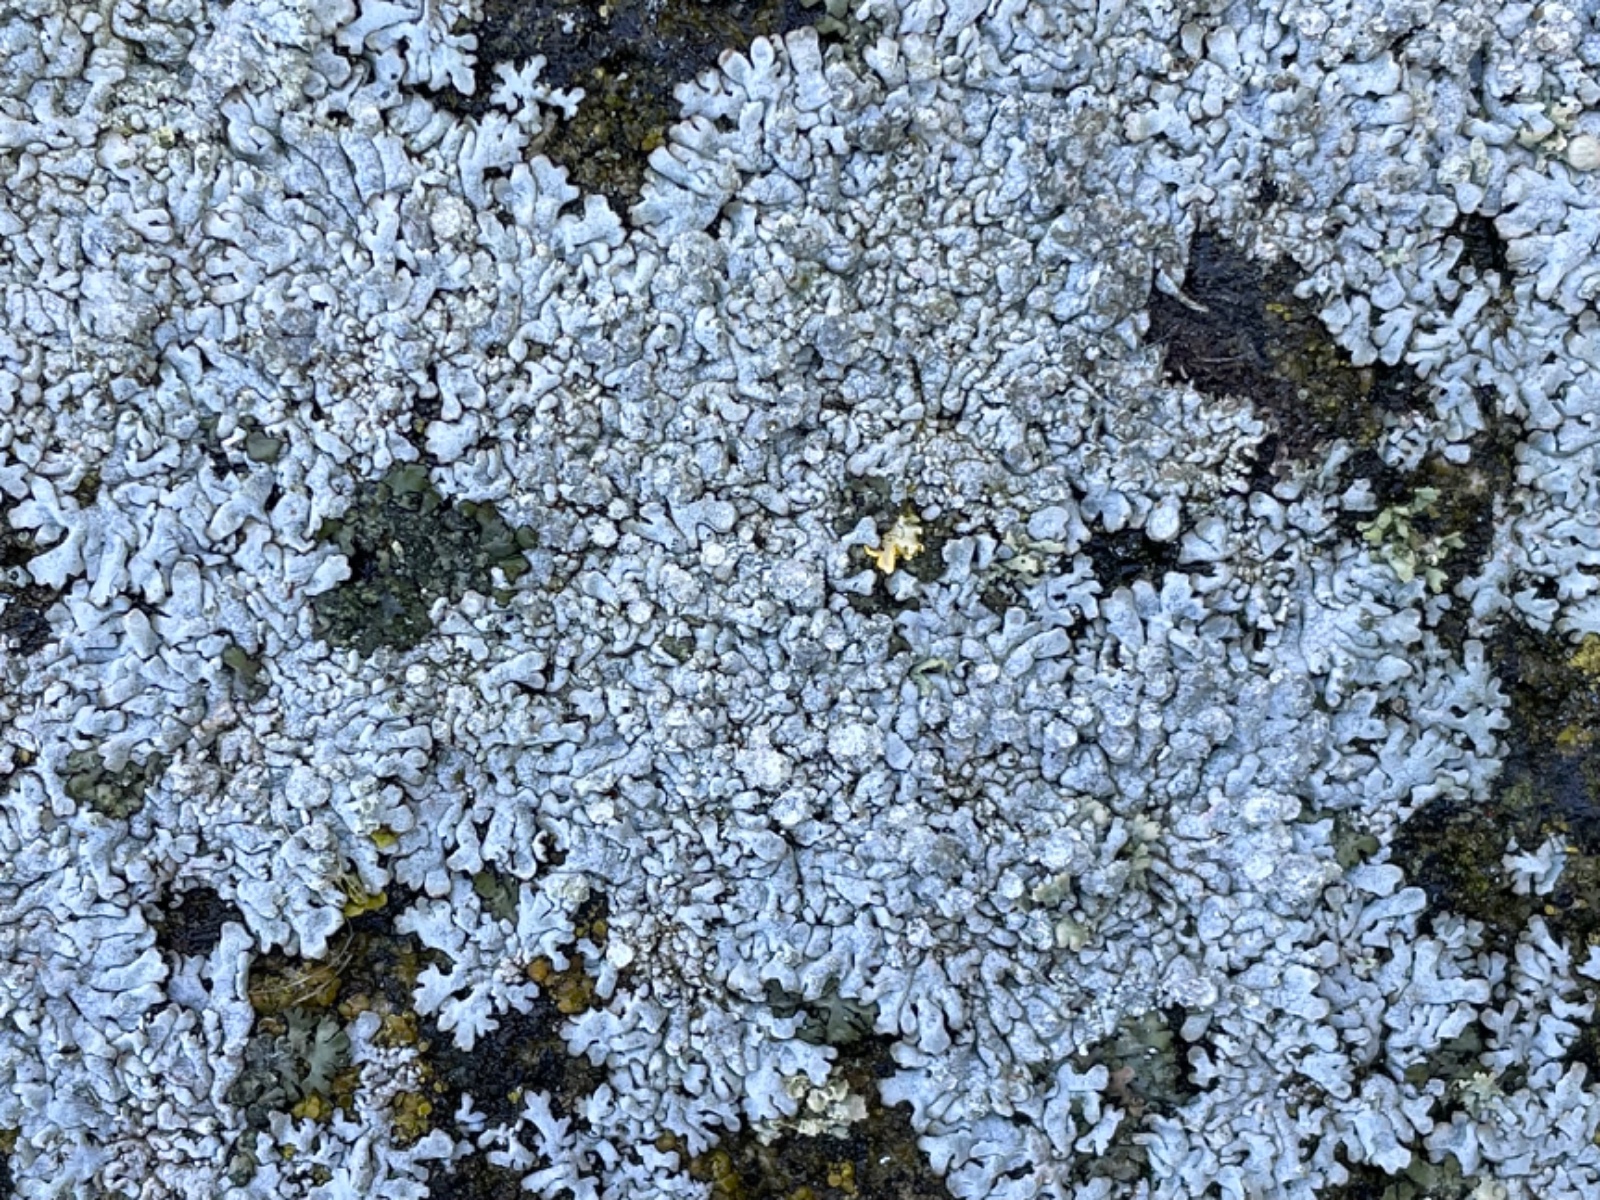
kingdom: Fungi
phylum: Ascomycota
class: Lecanoromycetes
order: Caliciales
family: Physciaceae
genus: Physcia
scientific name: Physcia caesia
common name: blågrå rosetlav
